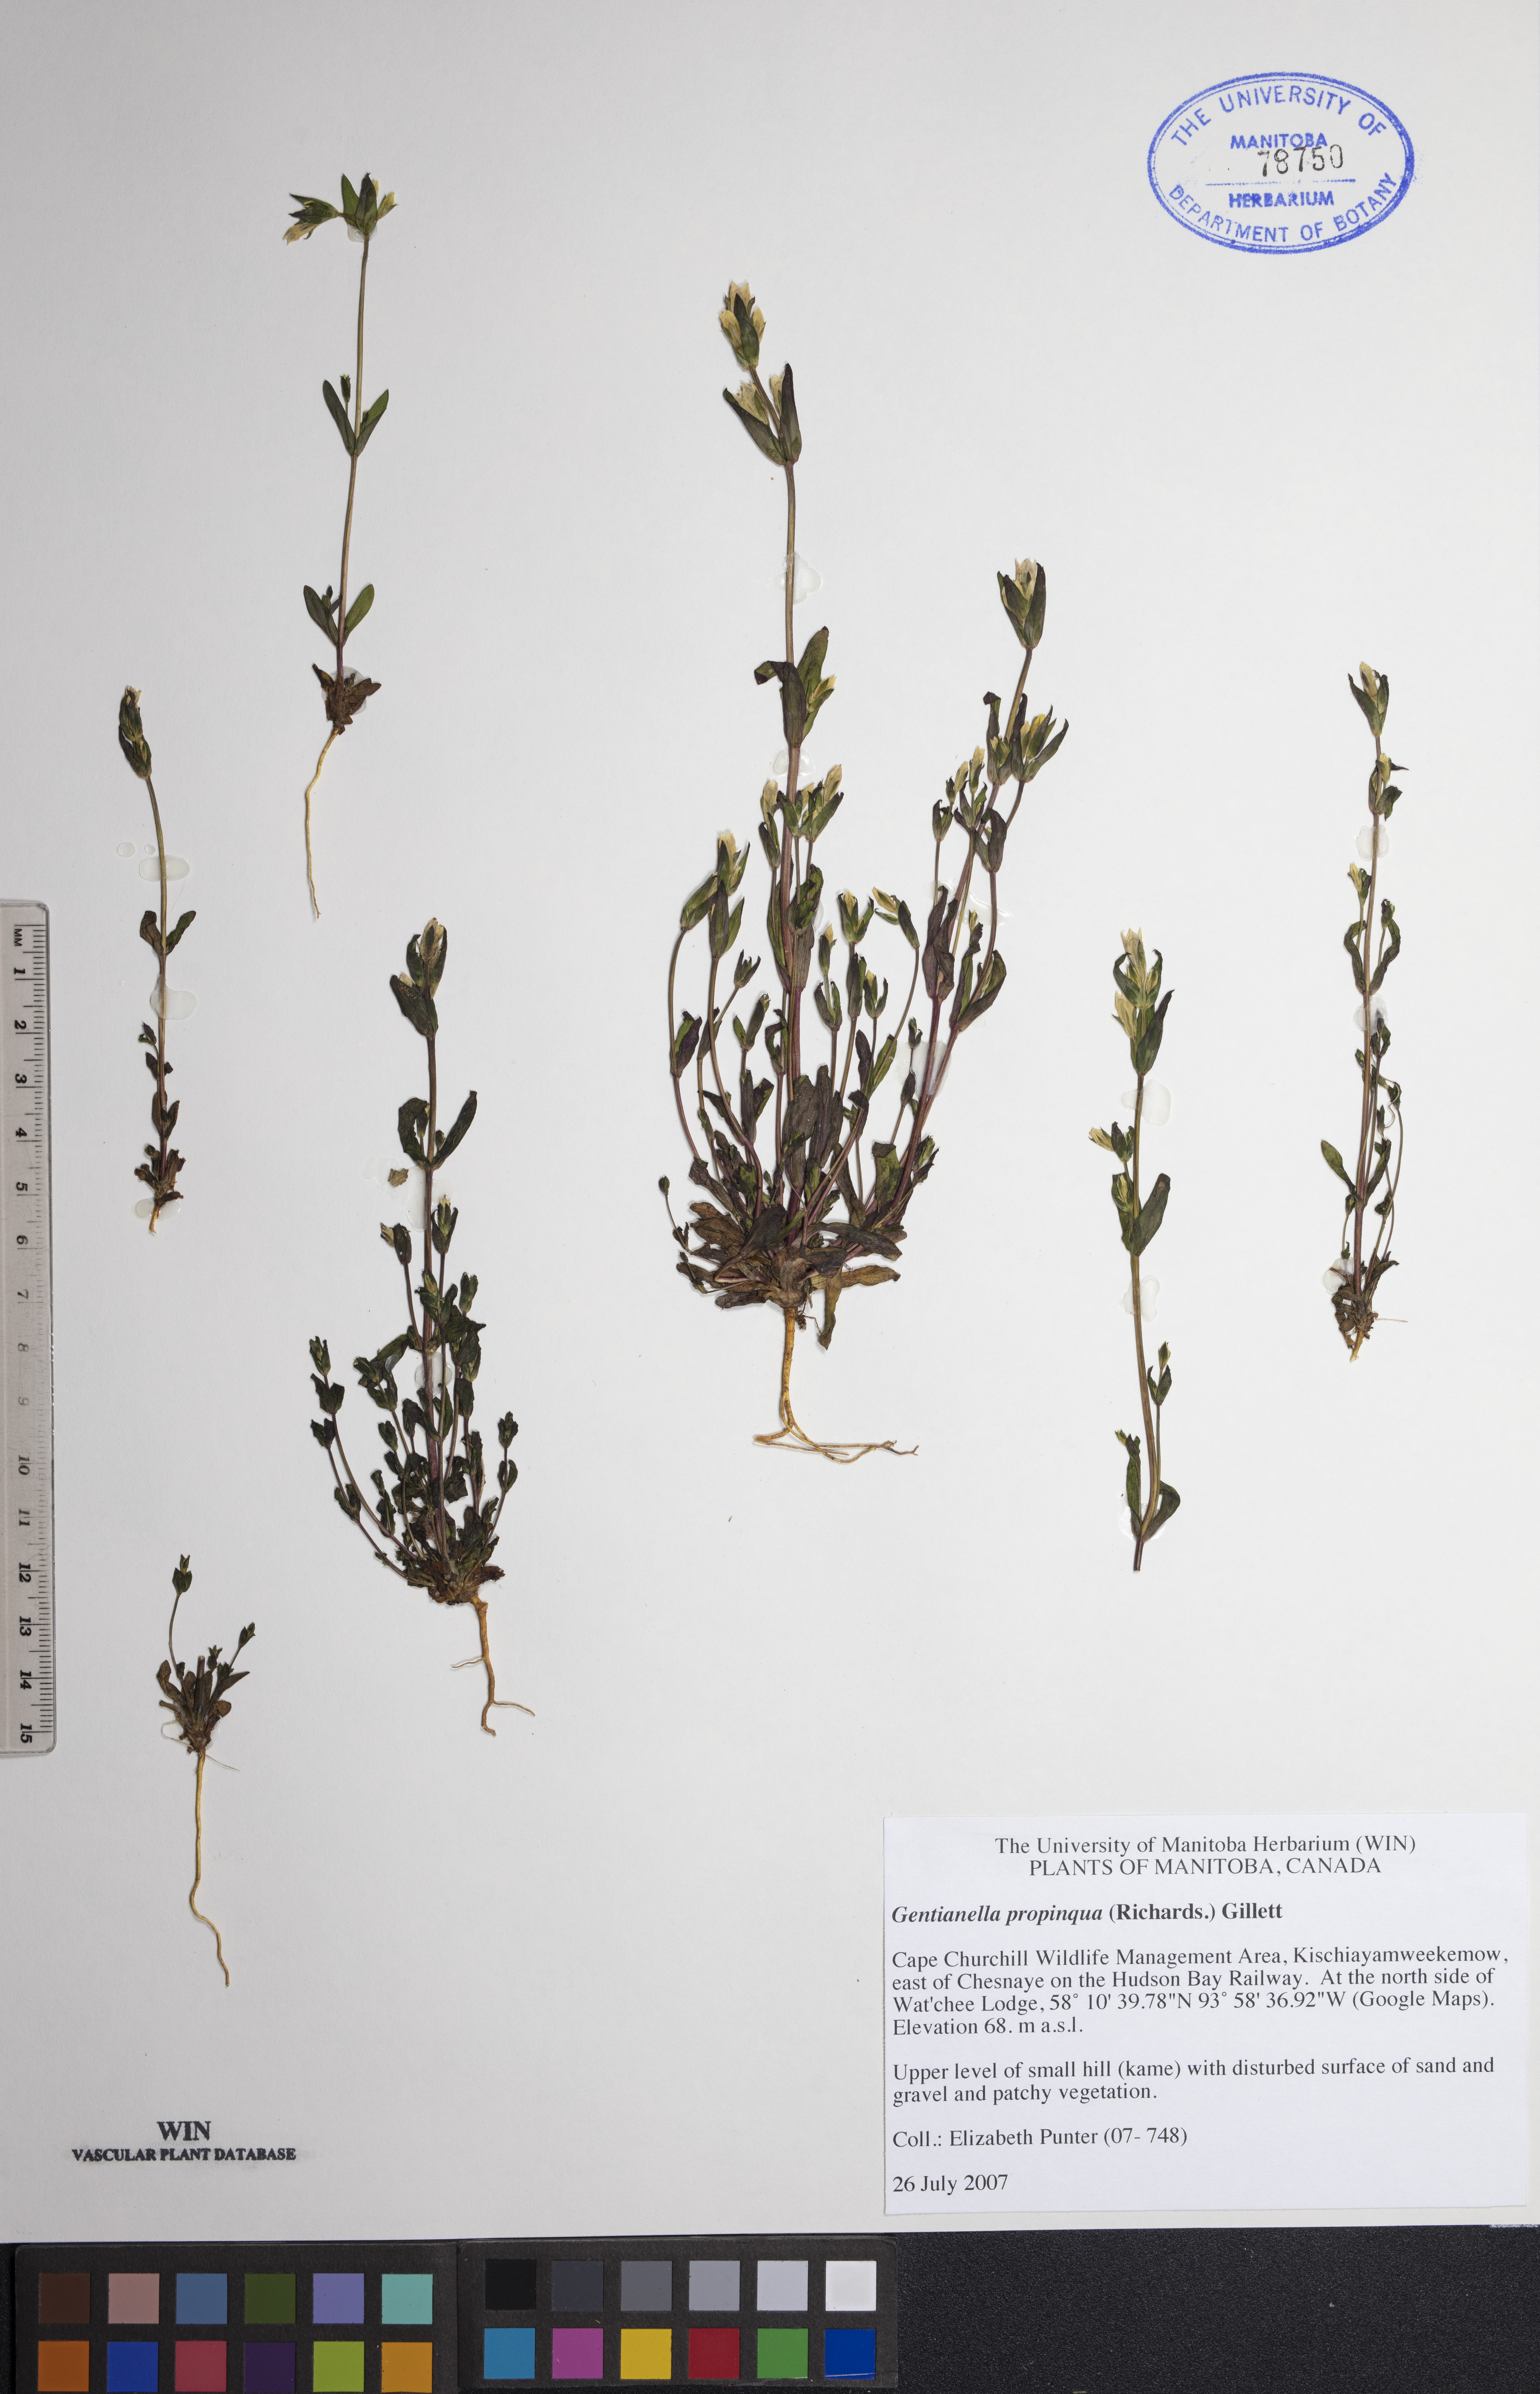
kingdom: Plantae
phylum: Tracheophyta
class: Magnoliopsida
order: Gentianales
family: Gentianaceae
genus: Gentianella
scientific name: Gentianella propinqua
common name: Four-parted dwarf-gentian
